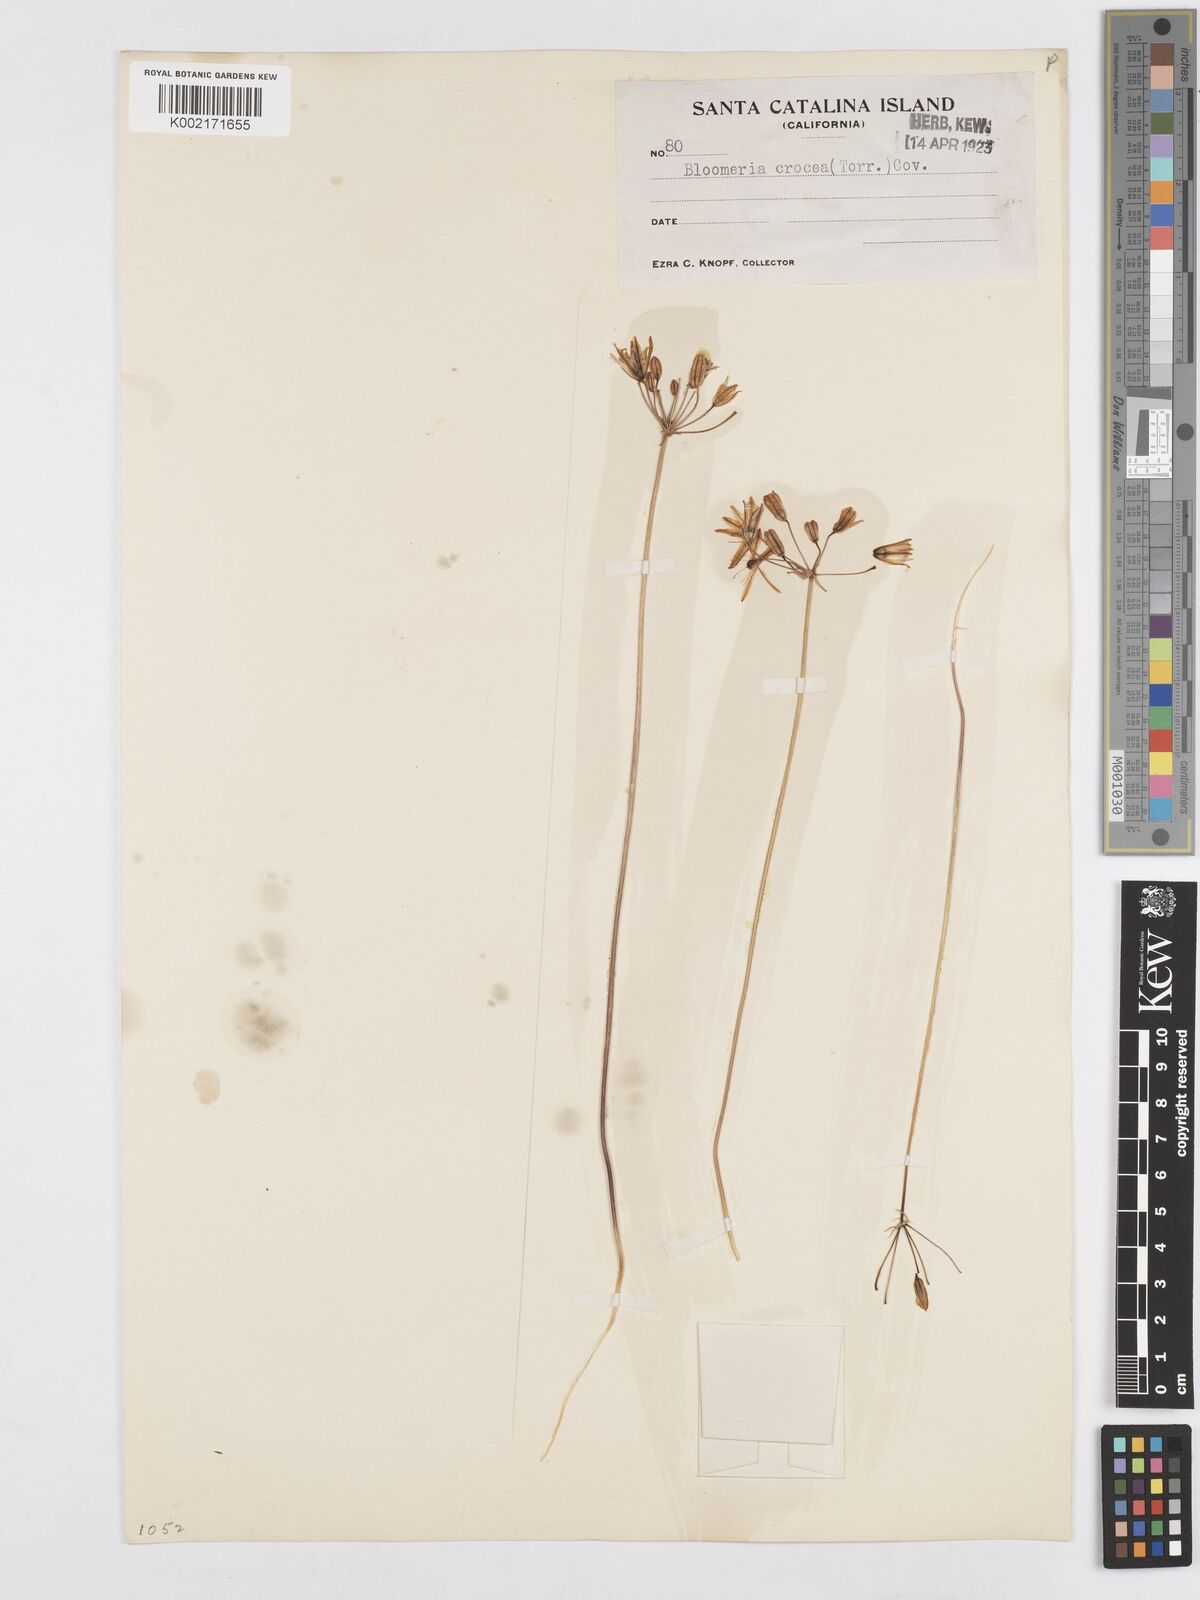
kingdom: Plantae
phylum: Tracheophyta
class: Liliopsida
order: Asparagales
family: Asparagaceae
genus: Bloomeria
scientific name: Bloomeria crocea
